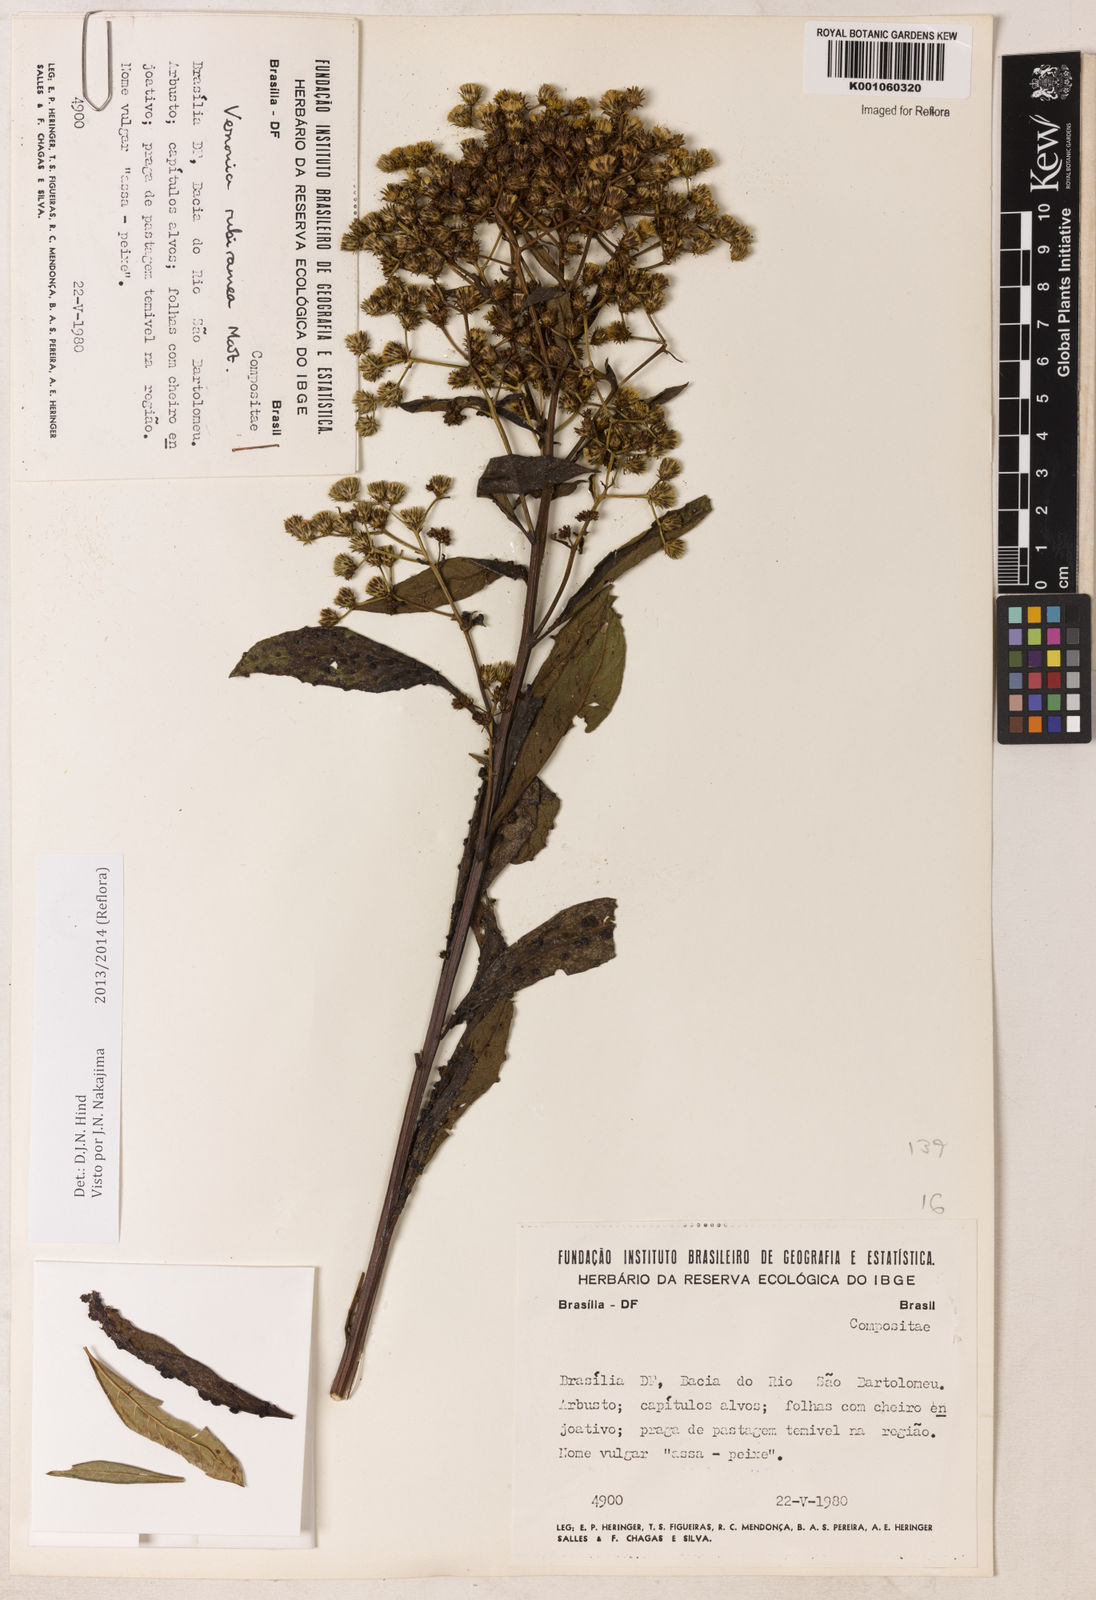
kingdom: Plantae
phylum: Tracheophyta
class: Magnoliopsida
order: Asterales
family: Asteraceae
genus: Vernonanthura
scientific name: Vernonanthura rubriramea
